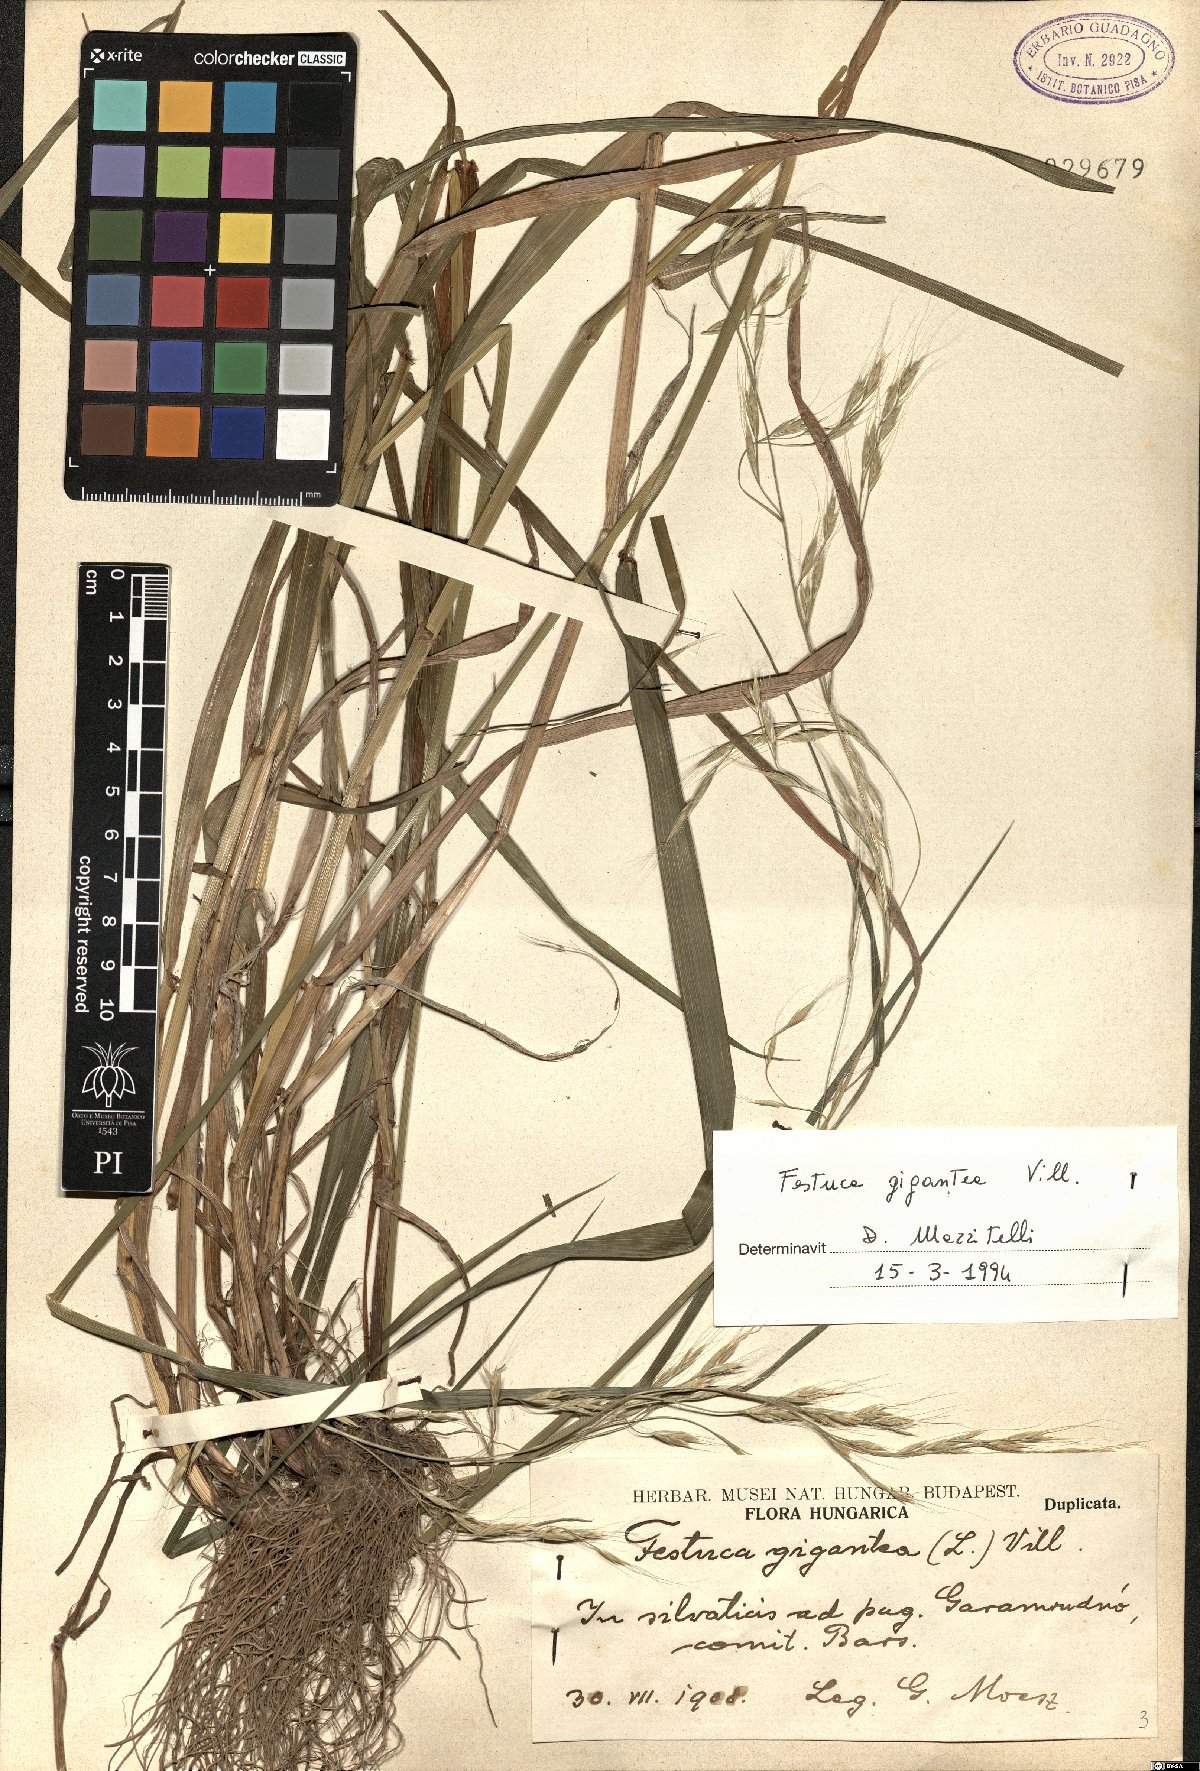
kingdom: Plantae
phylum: Tracheophyta
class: Liliopsida
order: Poales
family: Poaceae
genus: Lolium
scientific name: Lolium giganteum
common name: Giant fescue
